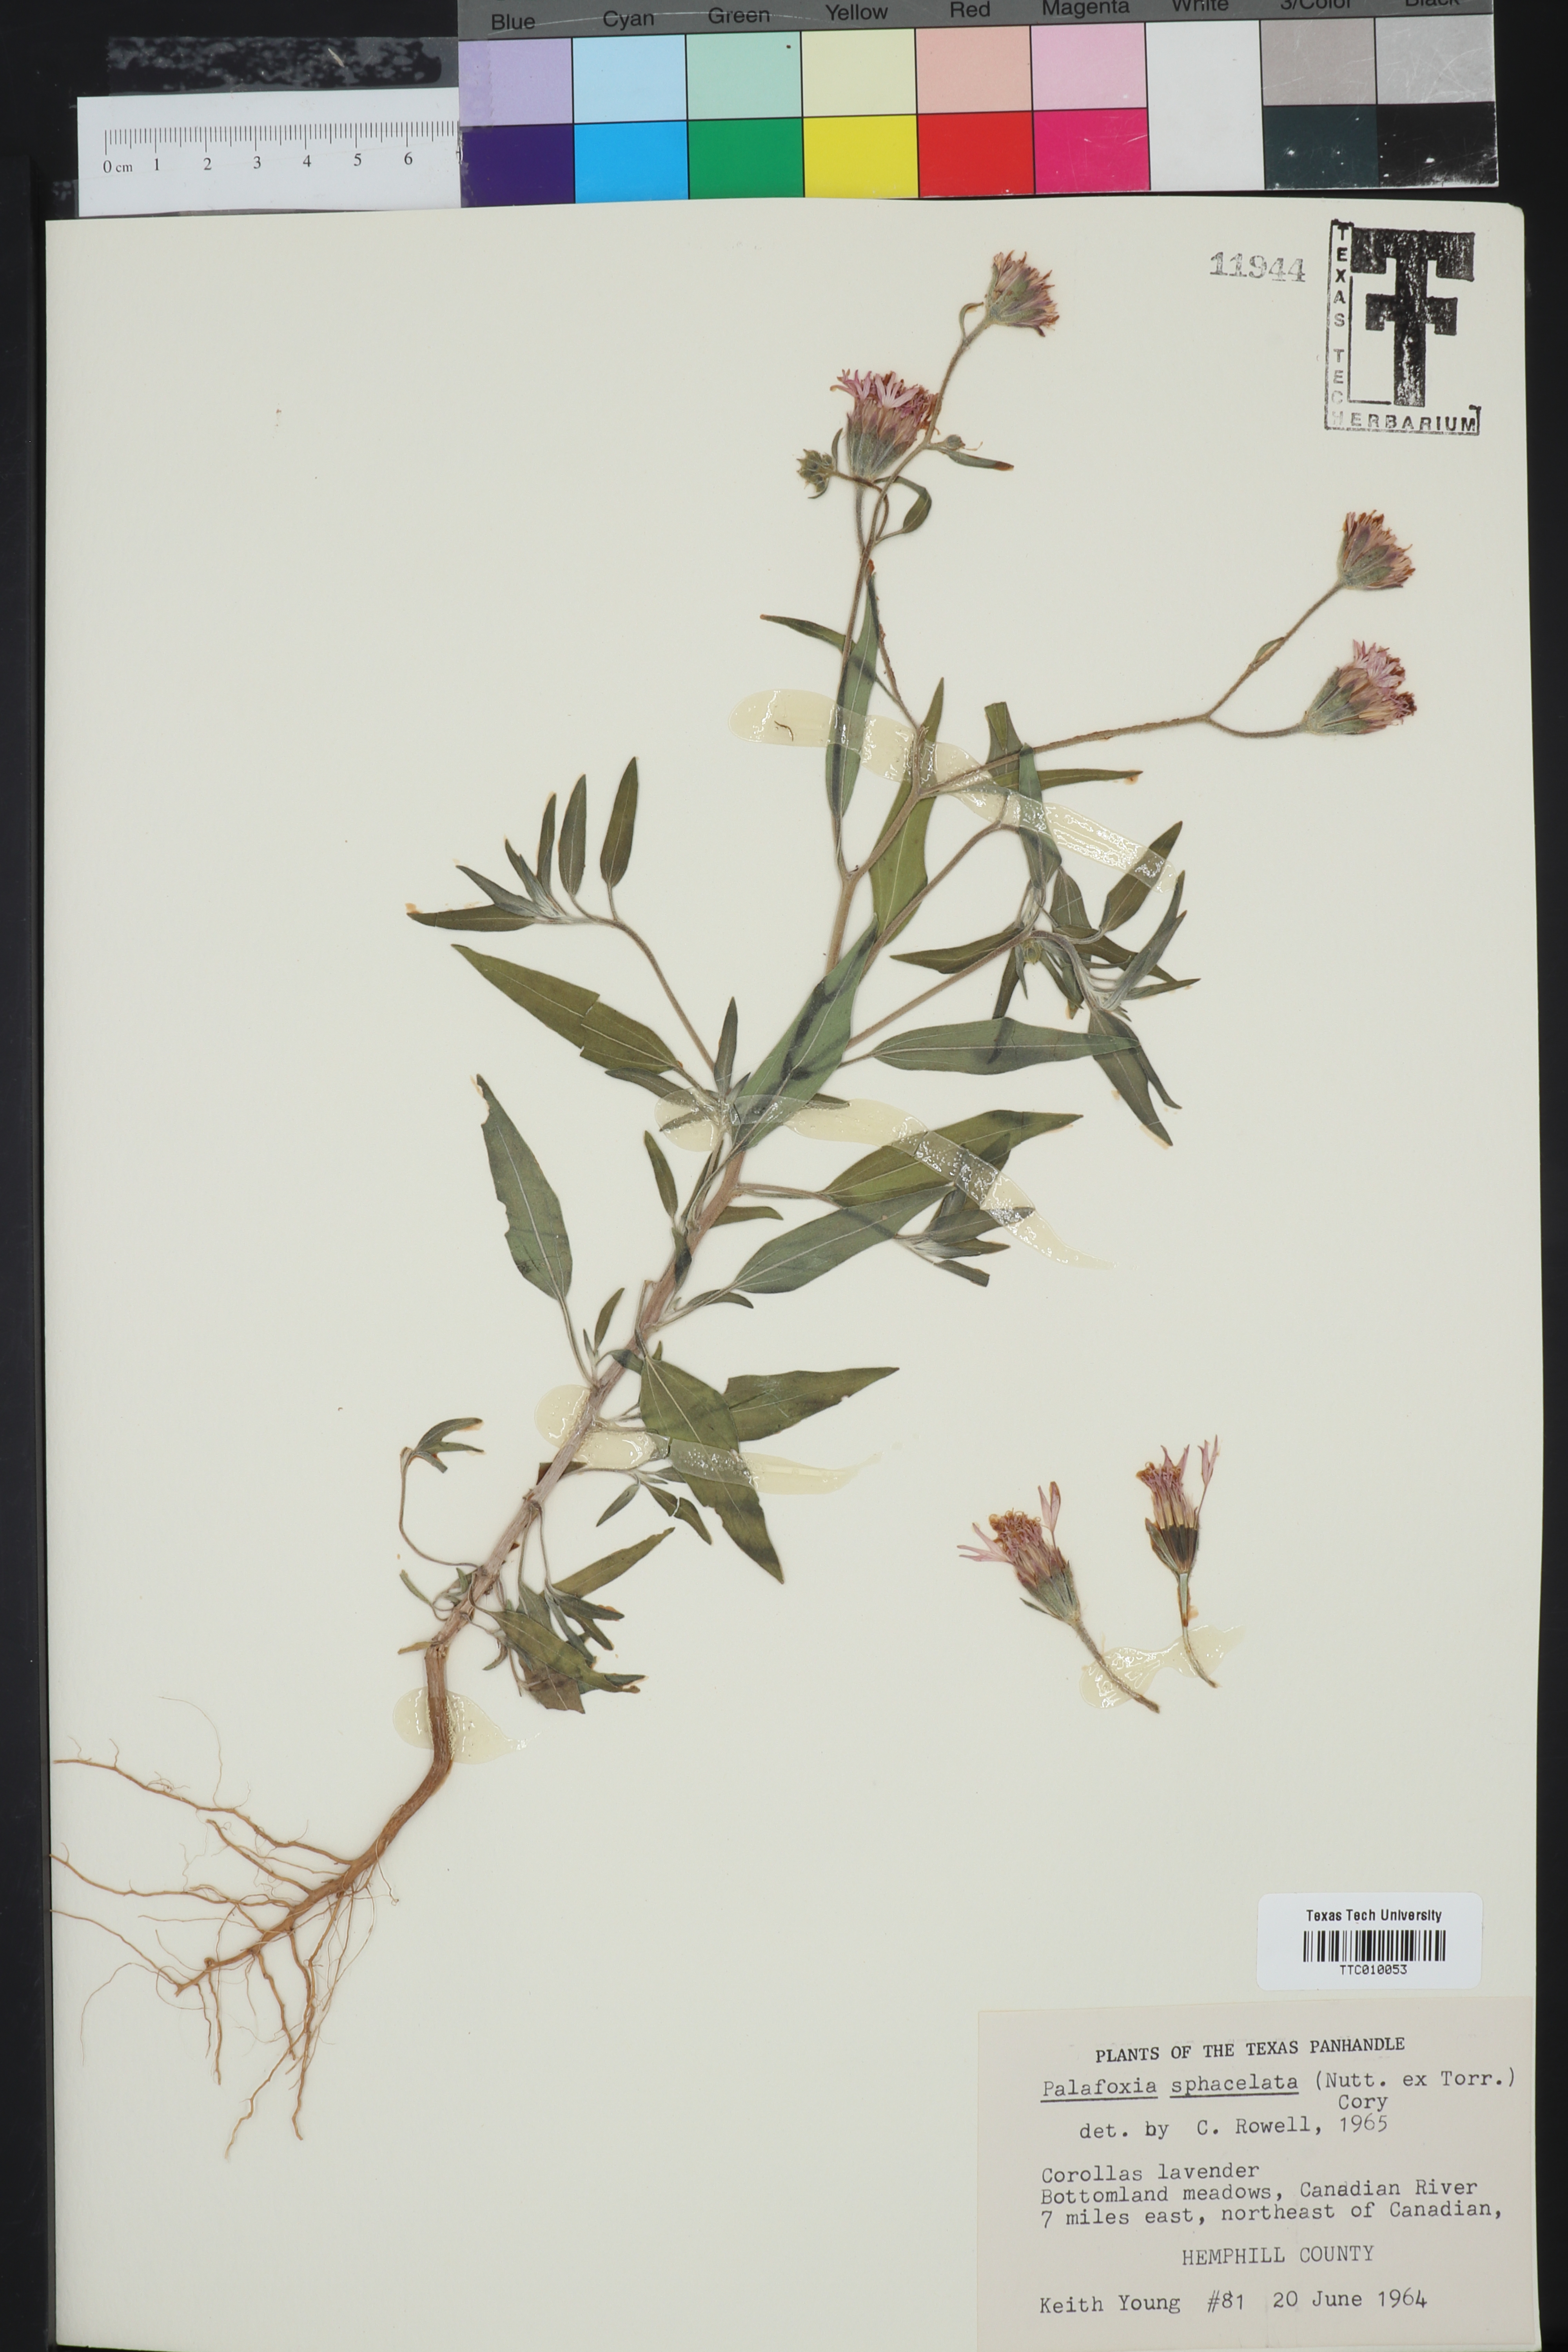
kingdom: Plantae
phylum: Tracheophyta
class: Magnoliopsida
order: Asterales
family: Asteraceae
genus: Palafoxia
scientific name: Palafoxia sphacelata
